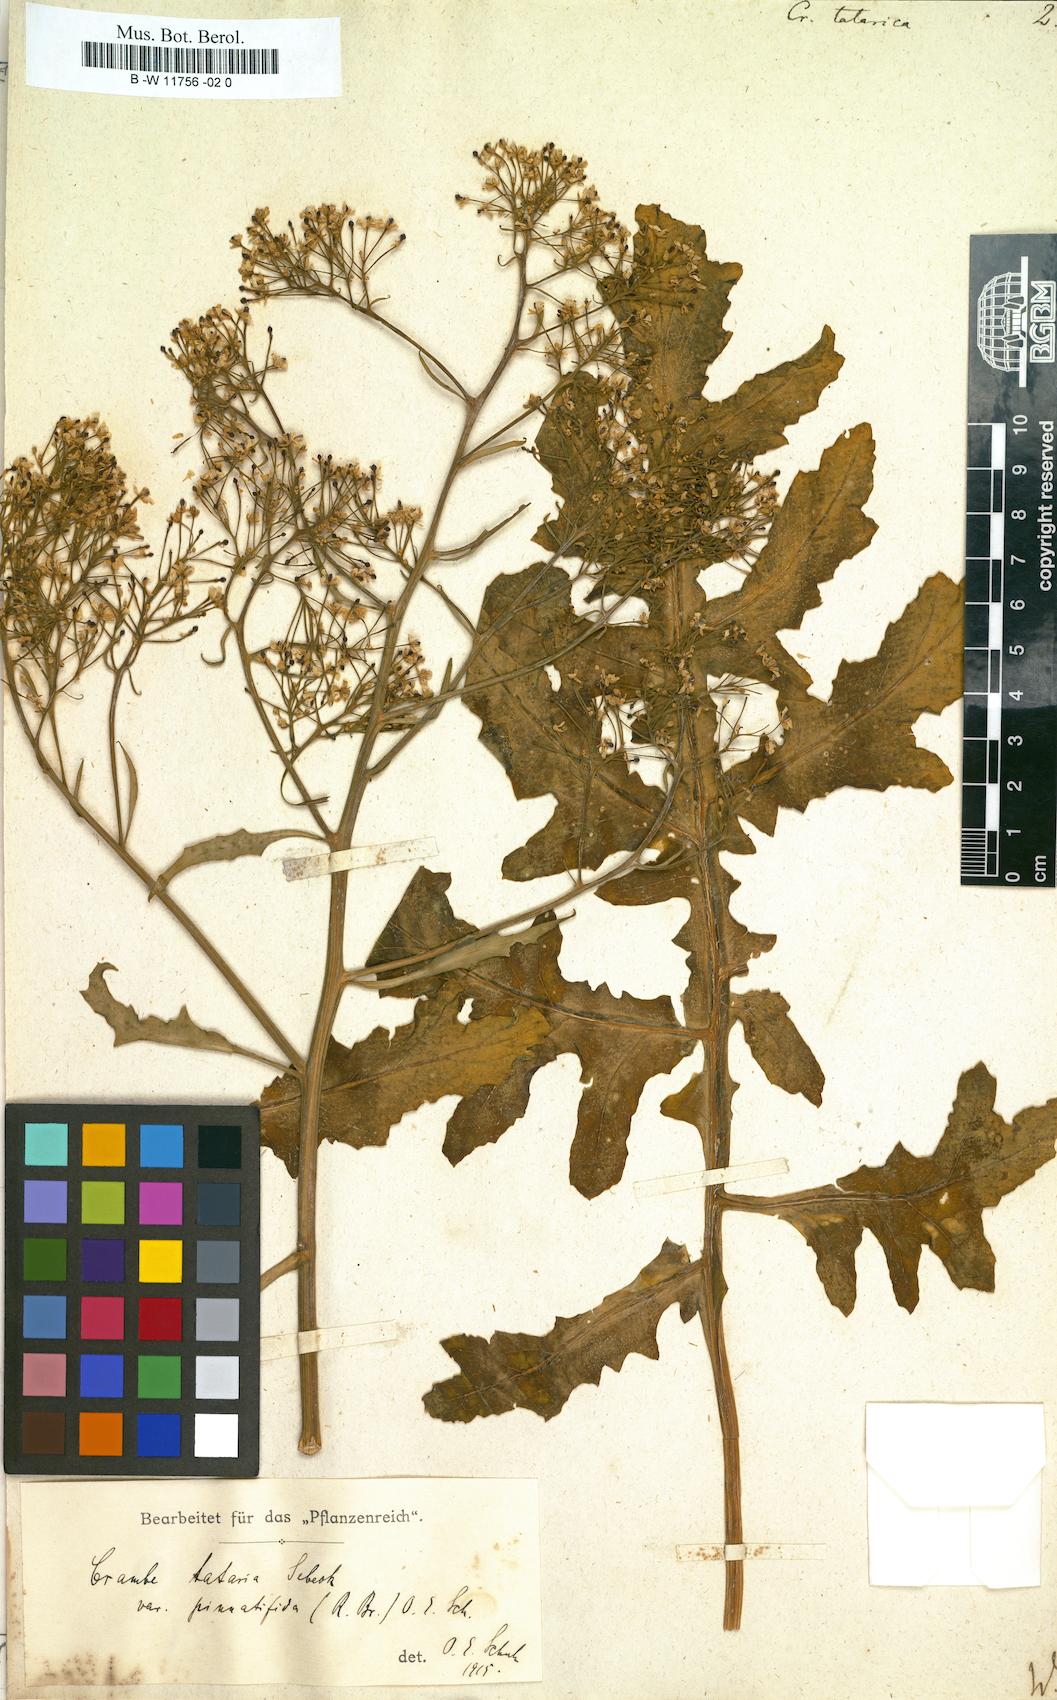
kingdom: Plantae
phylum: Tracheophyta
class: Magnoliopsida
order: Brassicales
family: Brassicaceae
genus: Crambe
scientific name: Crambe tatarica
